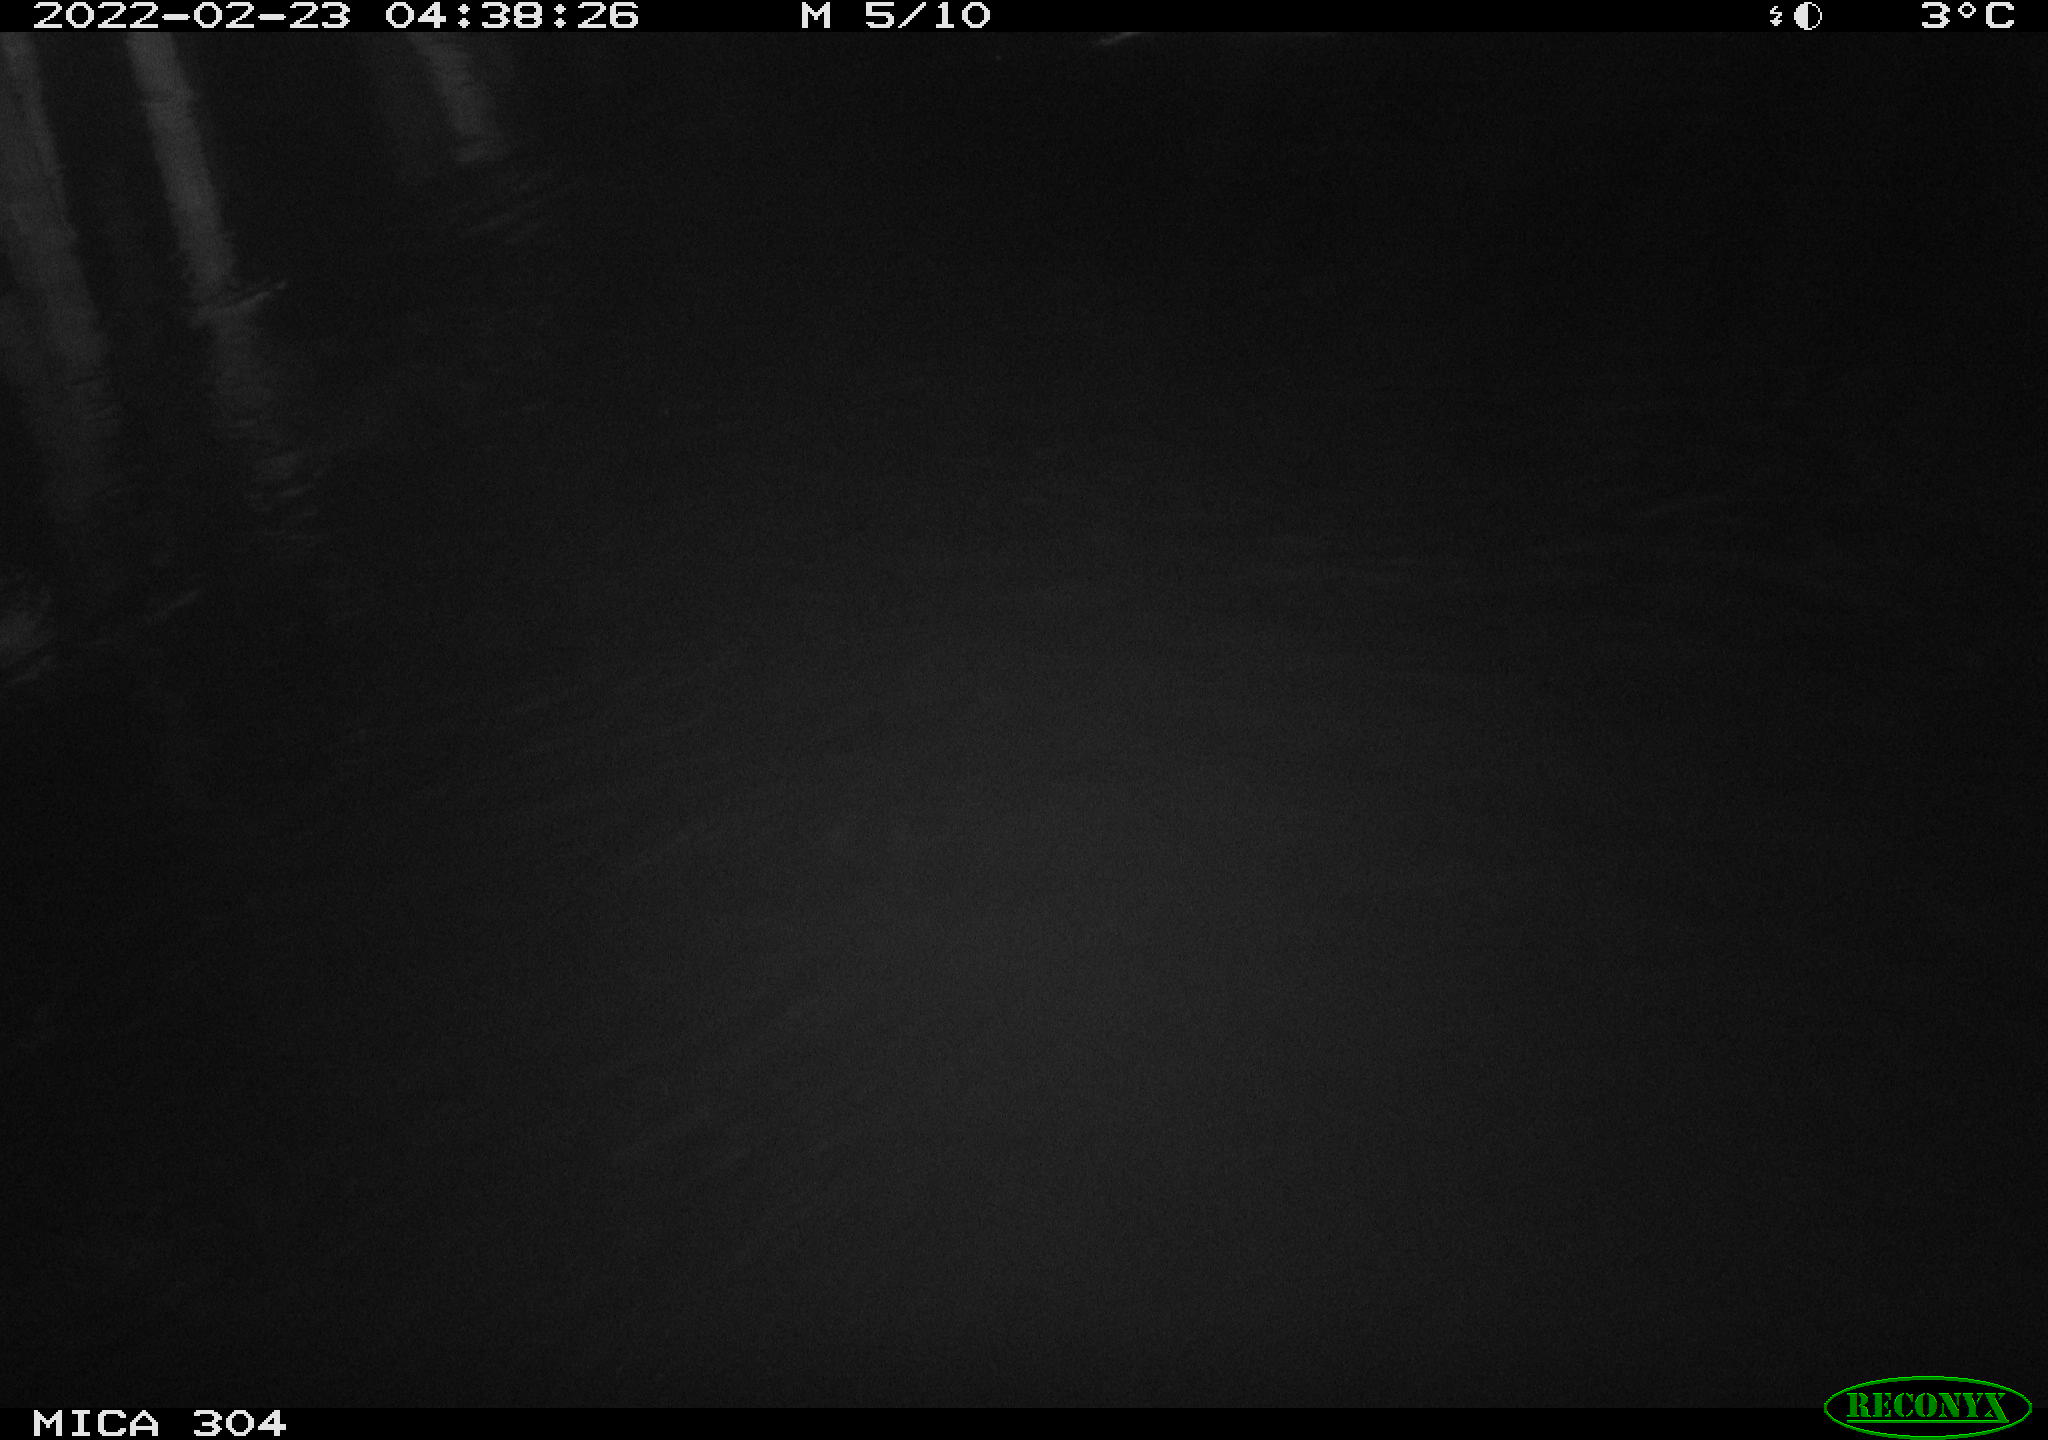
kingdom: Animalia
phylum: Chordata
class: Mammalia
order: Rodentia
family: Cricetidae
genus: Ondatra
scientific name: Ondatra zibethicus
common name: Muskrat
